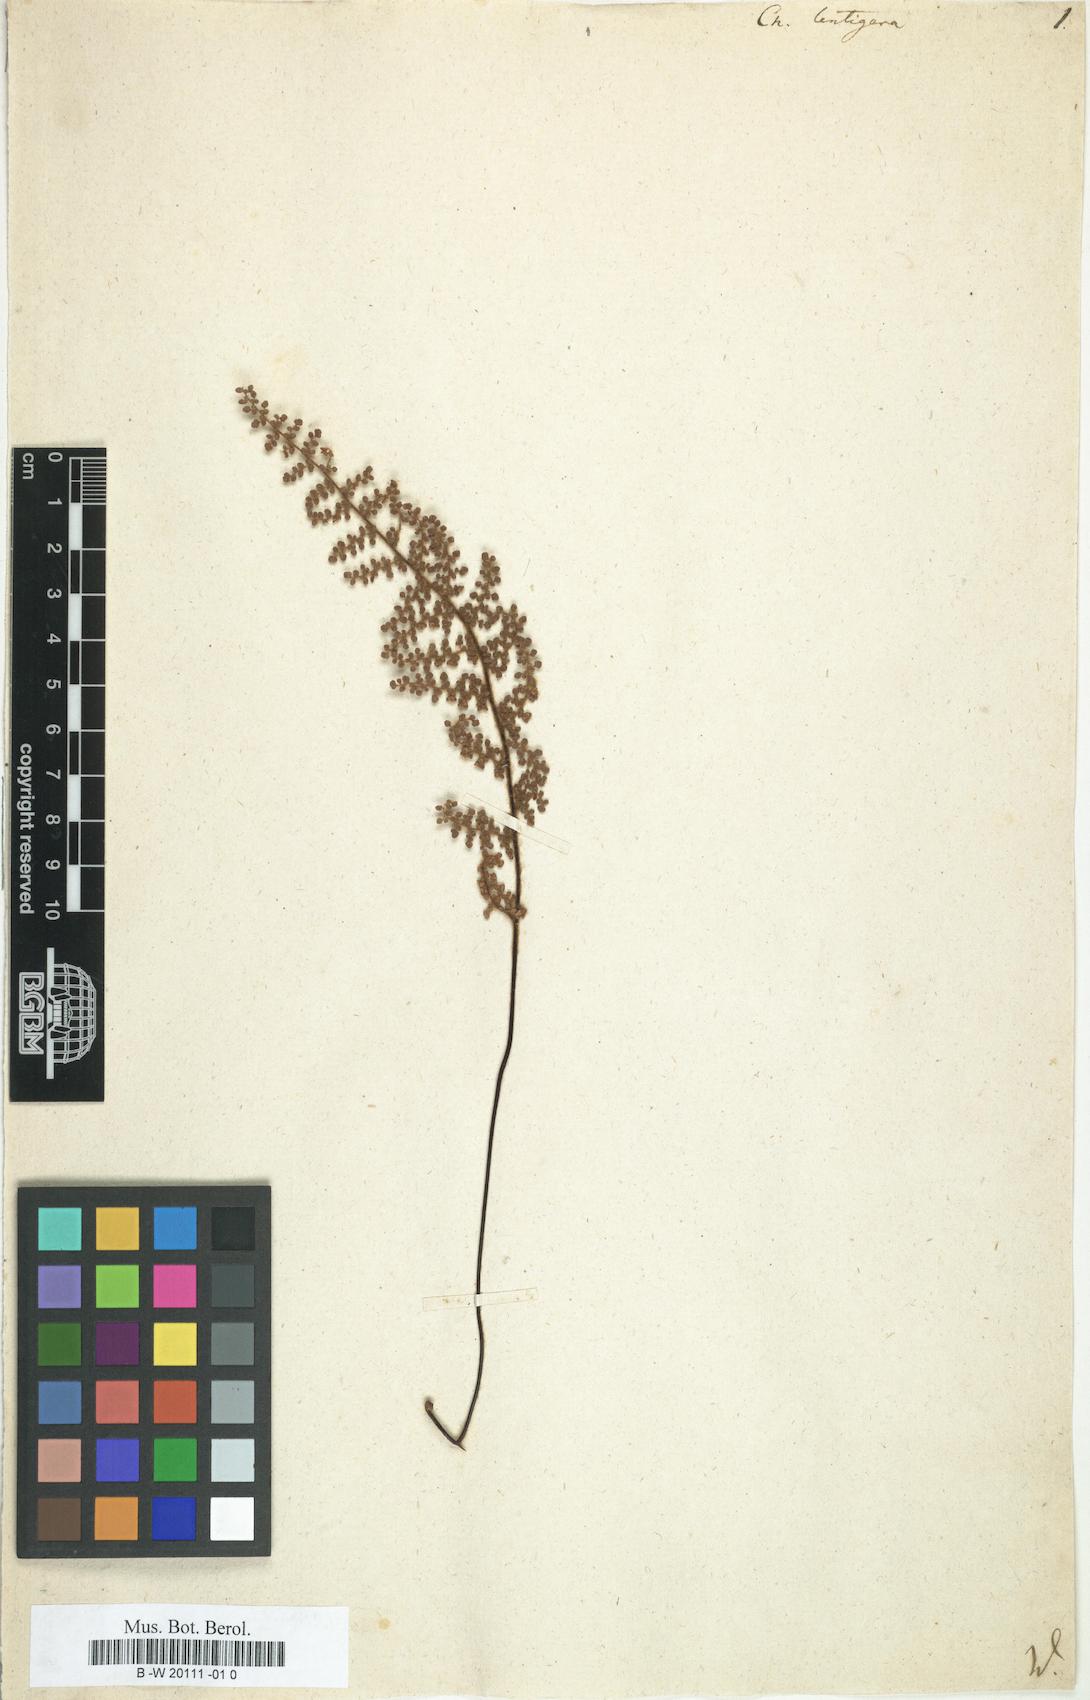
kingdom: Plantae
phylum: Tracheophyta
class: Polypodiopsida
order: Polypodiales
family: Pteridaceae
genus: Hemionitis
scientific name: Hemionitis Cheilanthes lentigera
